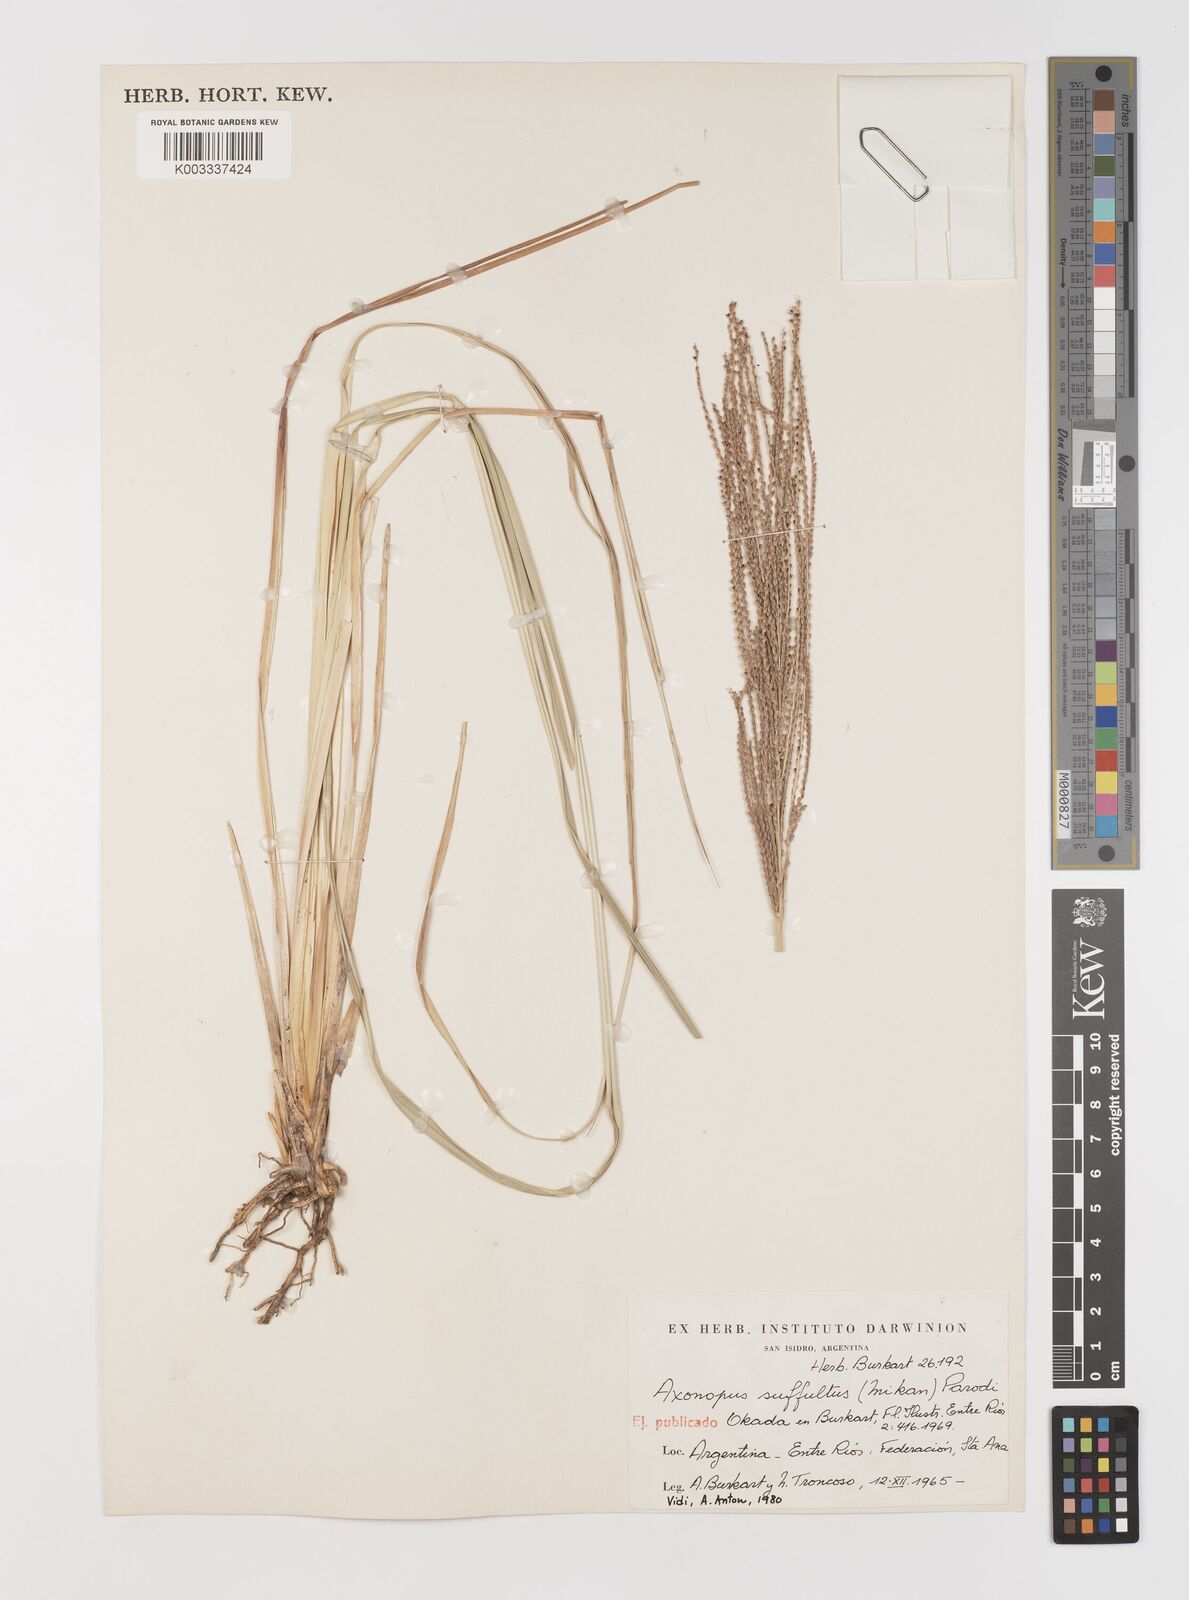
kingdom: Plantae
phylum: Tracheophyta
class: Liliopsida
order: Poales
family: Poaceae
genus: Axonopus
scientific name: Axonopus suffultus
